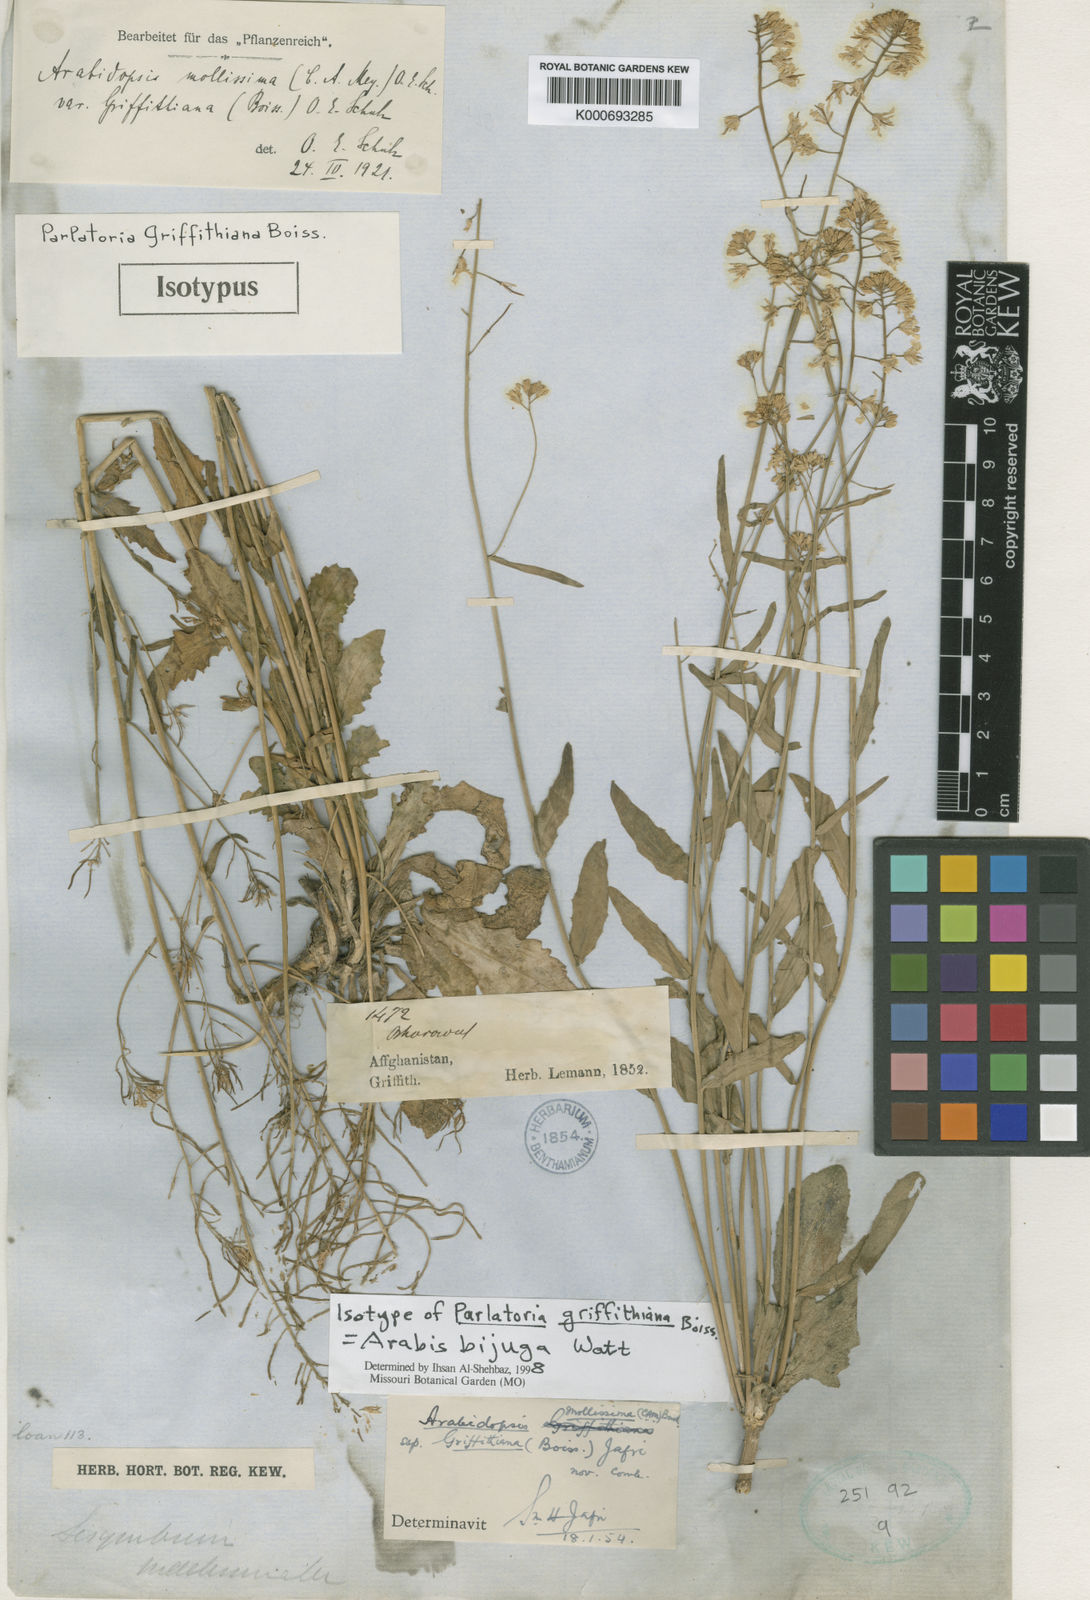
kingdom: Plantae
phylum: Tracheophyta
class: Magnoliopsida
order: Brassicales
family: Brassicaceae
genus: Arabis
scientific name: Arabis bijuga
